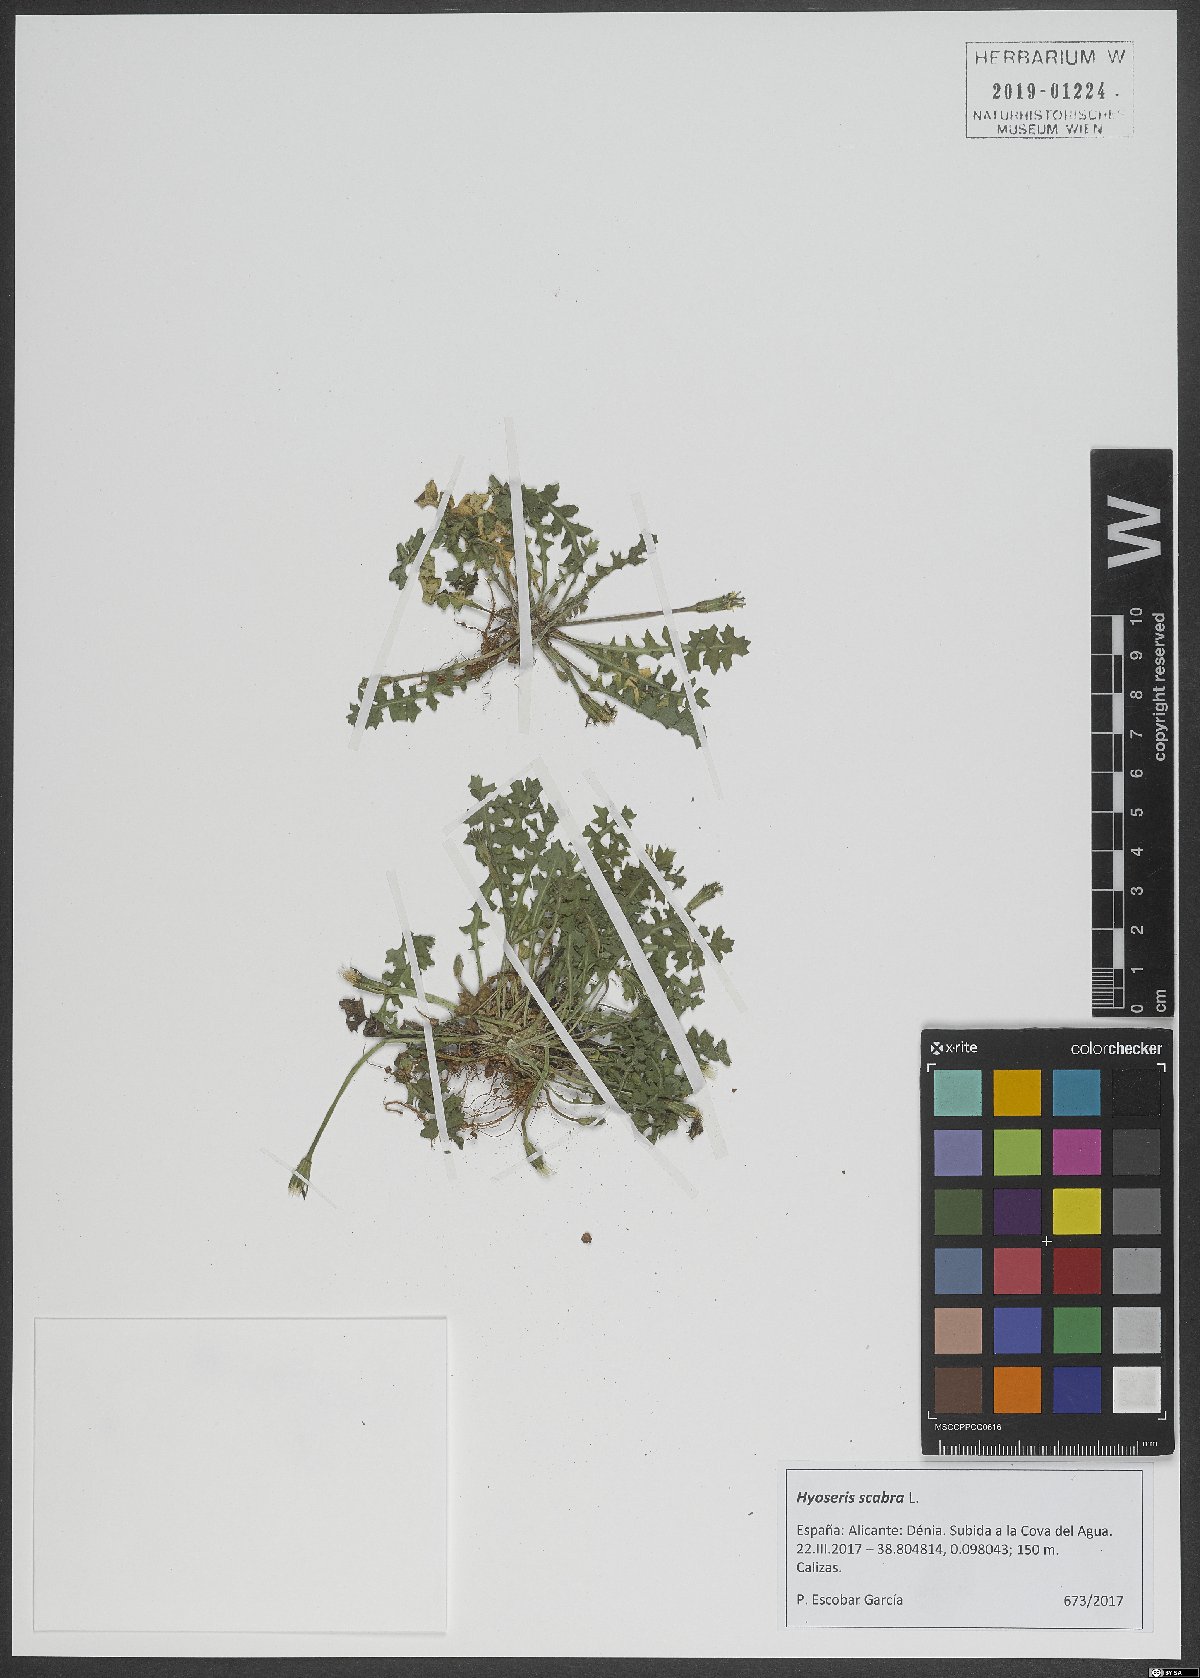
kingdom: Plantae
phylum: Tracheophyta
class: Magnoliopsida
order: Asterales
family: Asteraceae
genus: Hyoseris
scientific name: Hyoseris scabra
